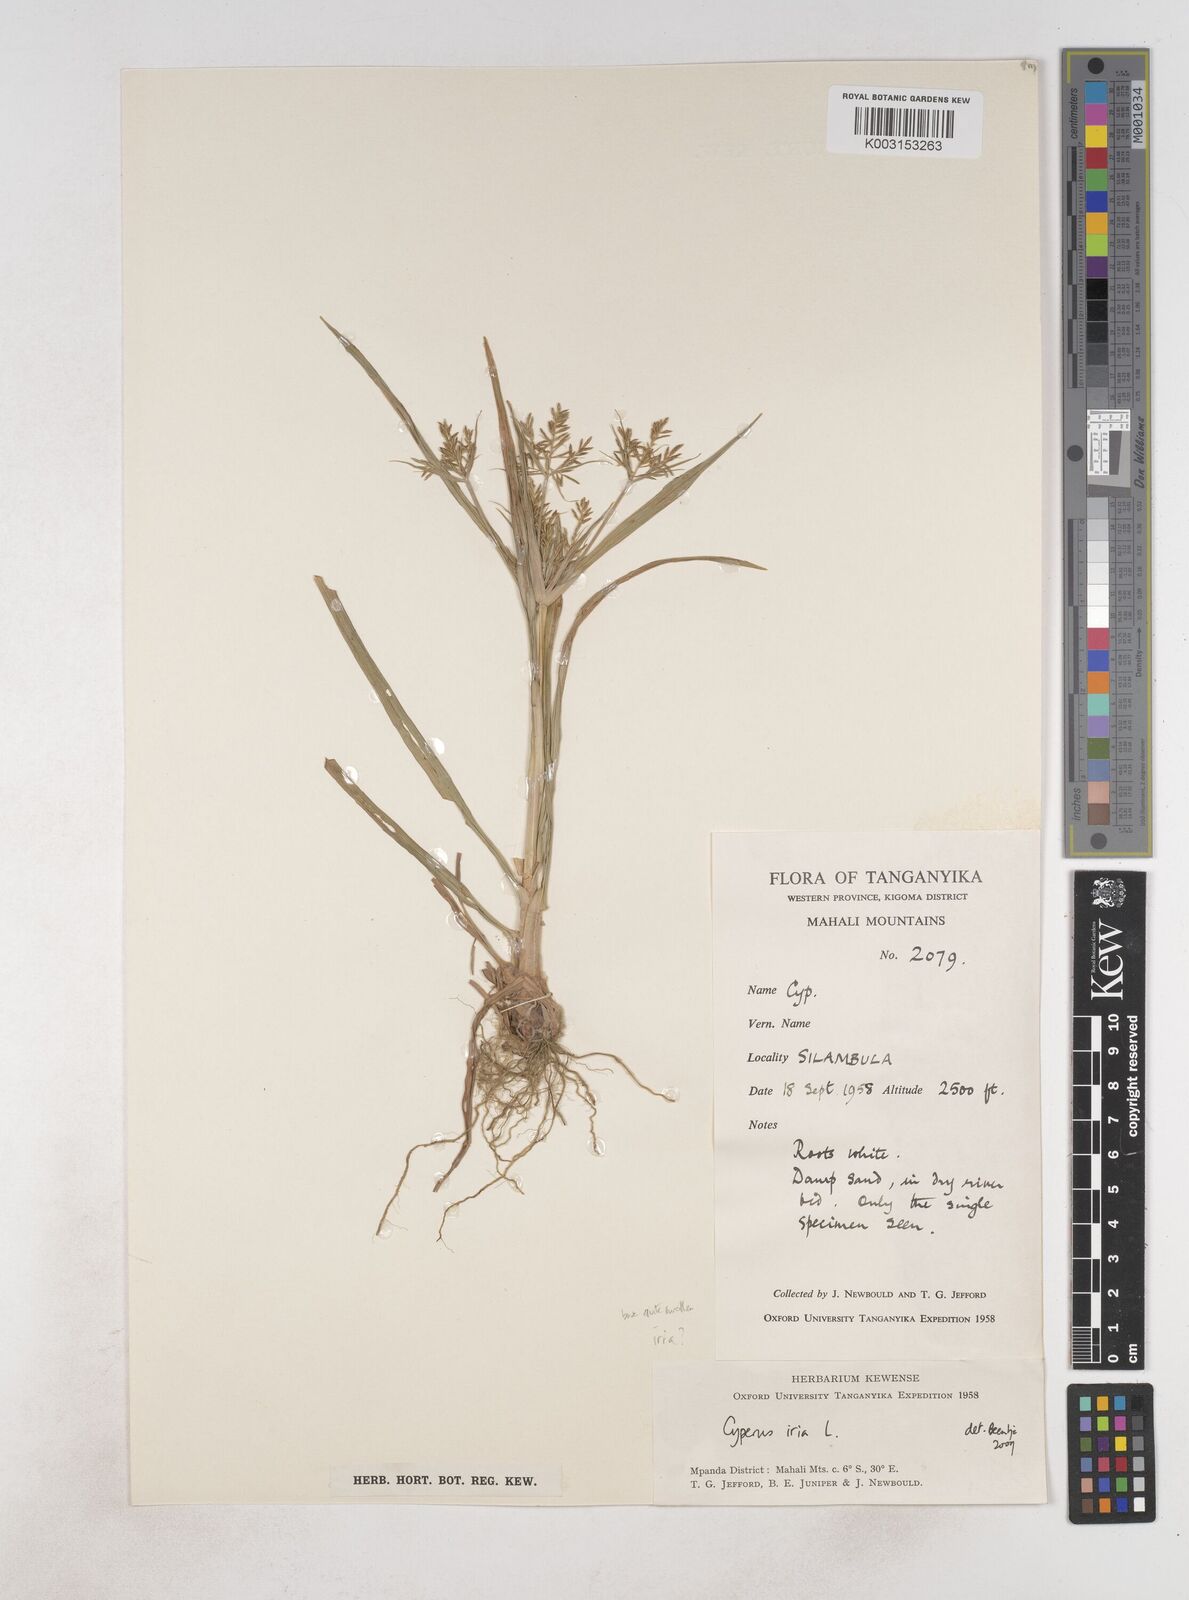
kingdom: Plantae
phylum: Tracheophyta
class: Liliopsida
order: Poales
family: Cyperaceae
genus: Cyperus
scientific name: Cyperus iria
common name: Ricefield flatsedge
